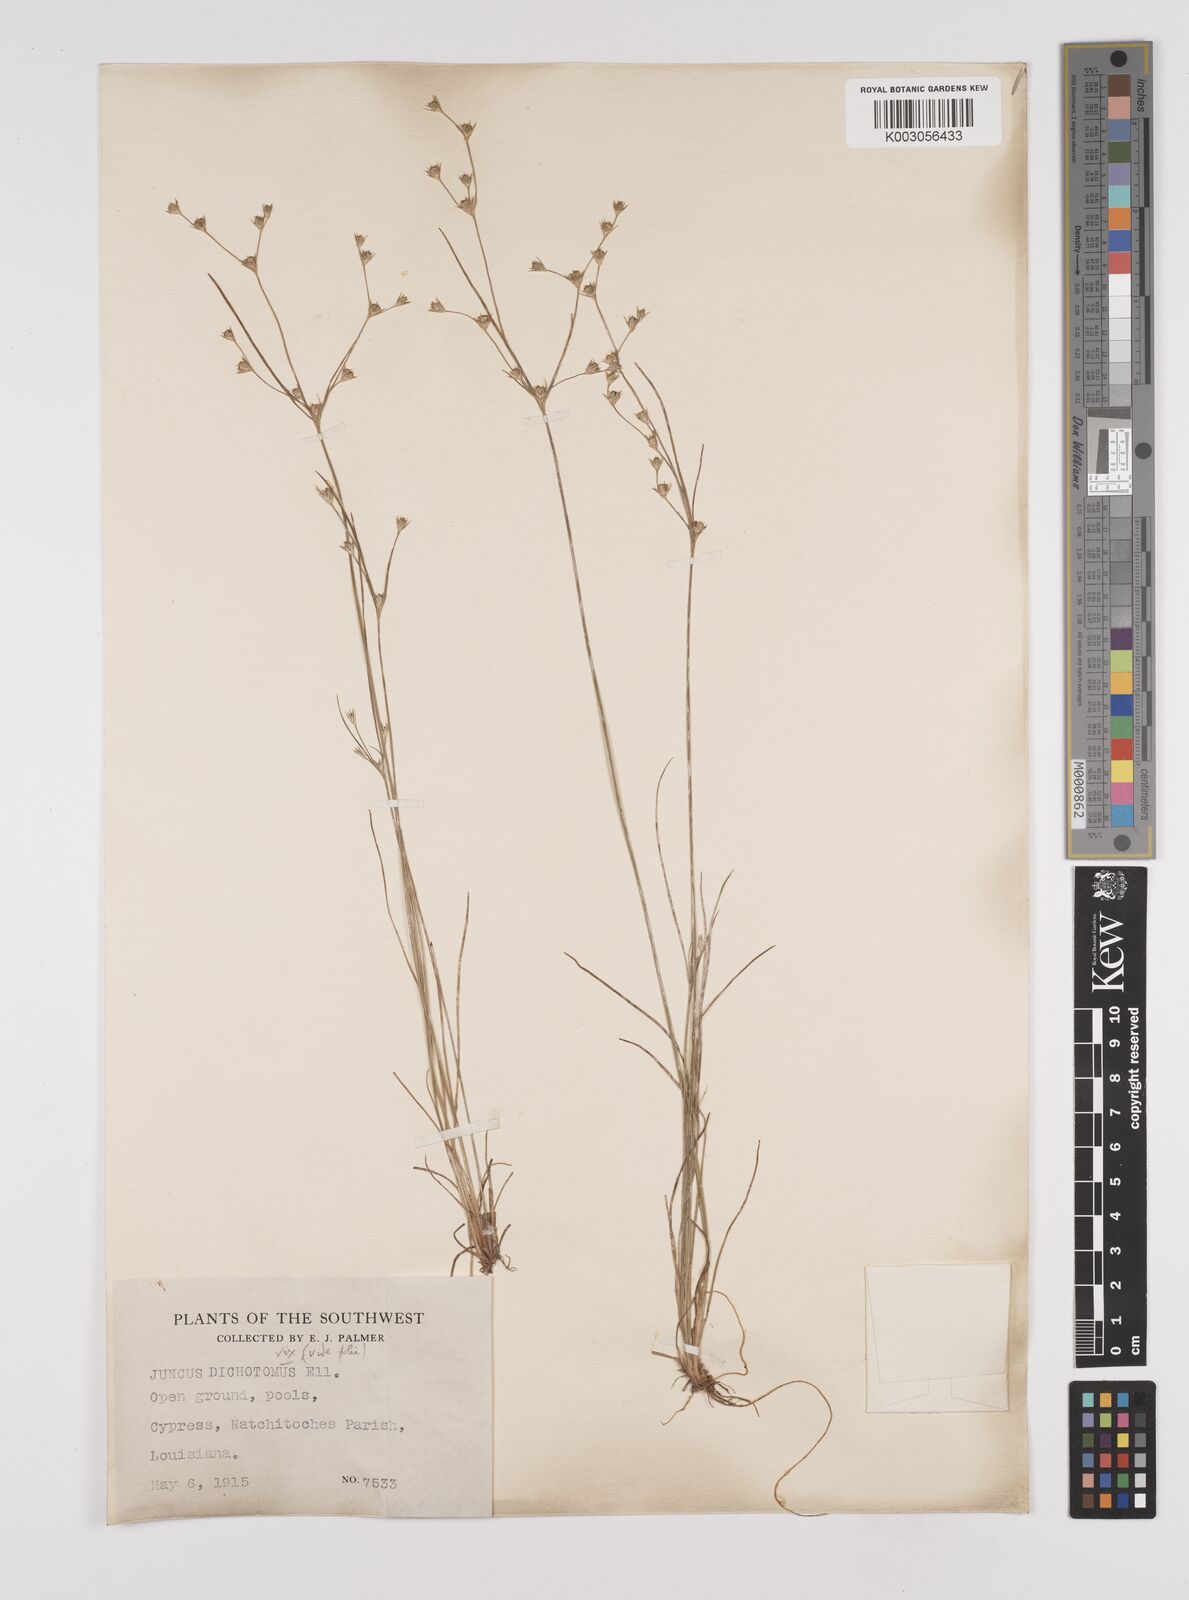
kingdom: Plantae
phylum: Tracheophyta
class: Liliopsida
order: Poales
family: Juncaceae
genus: Juncus
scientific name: Juncus anthelatus
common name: Giant path rush
